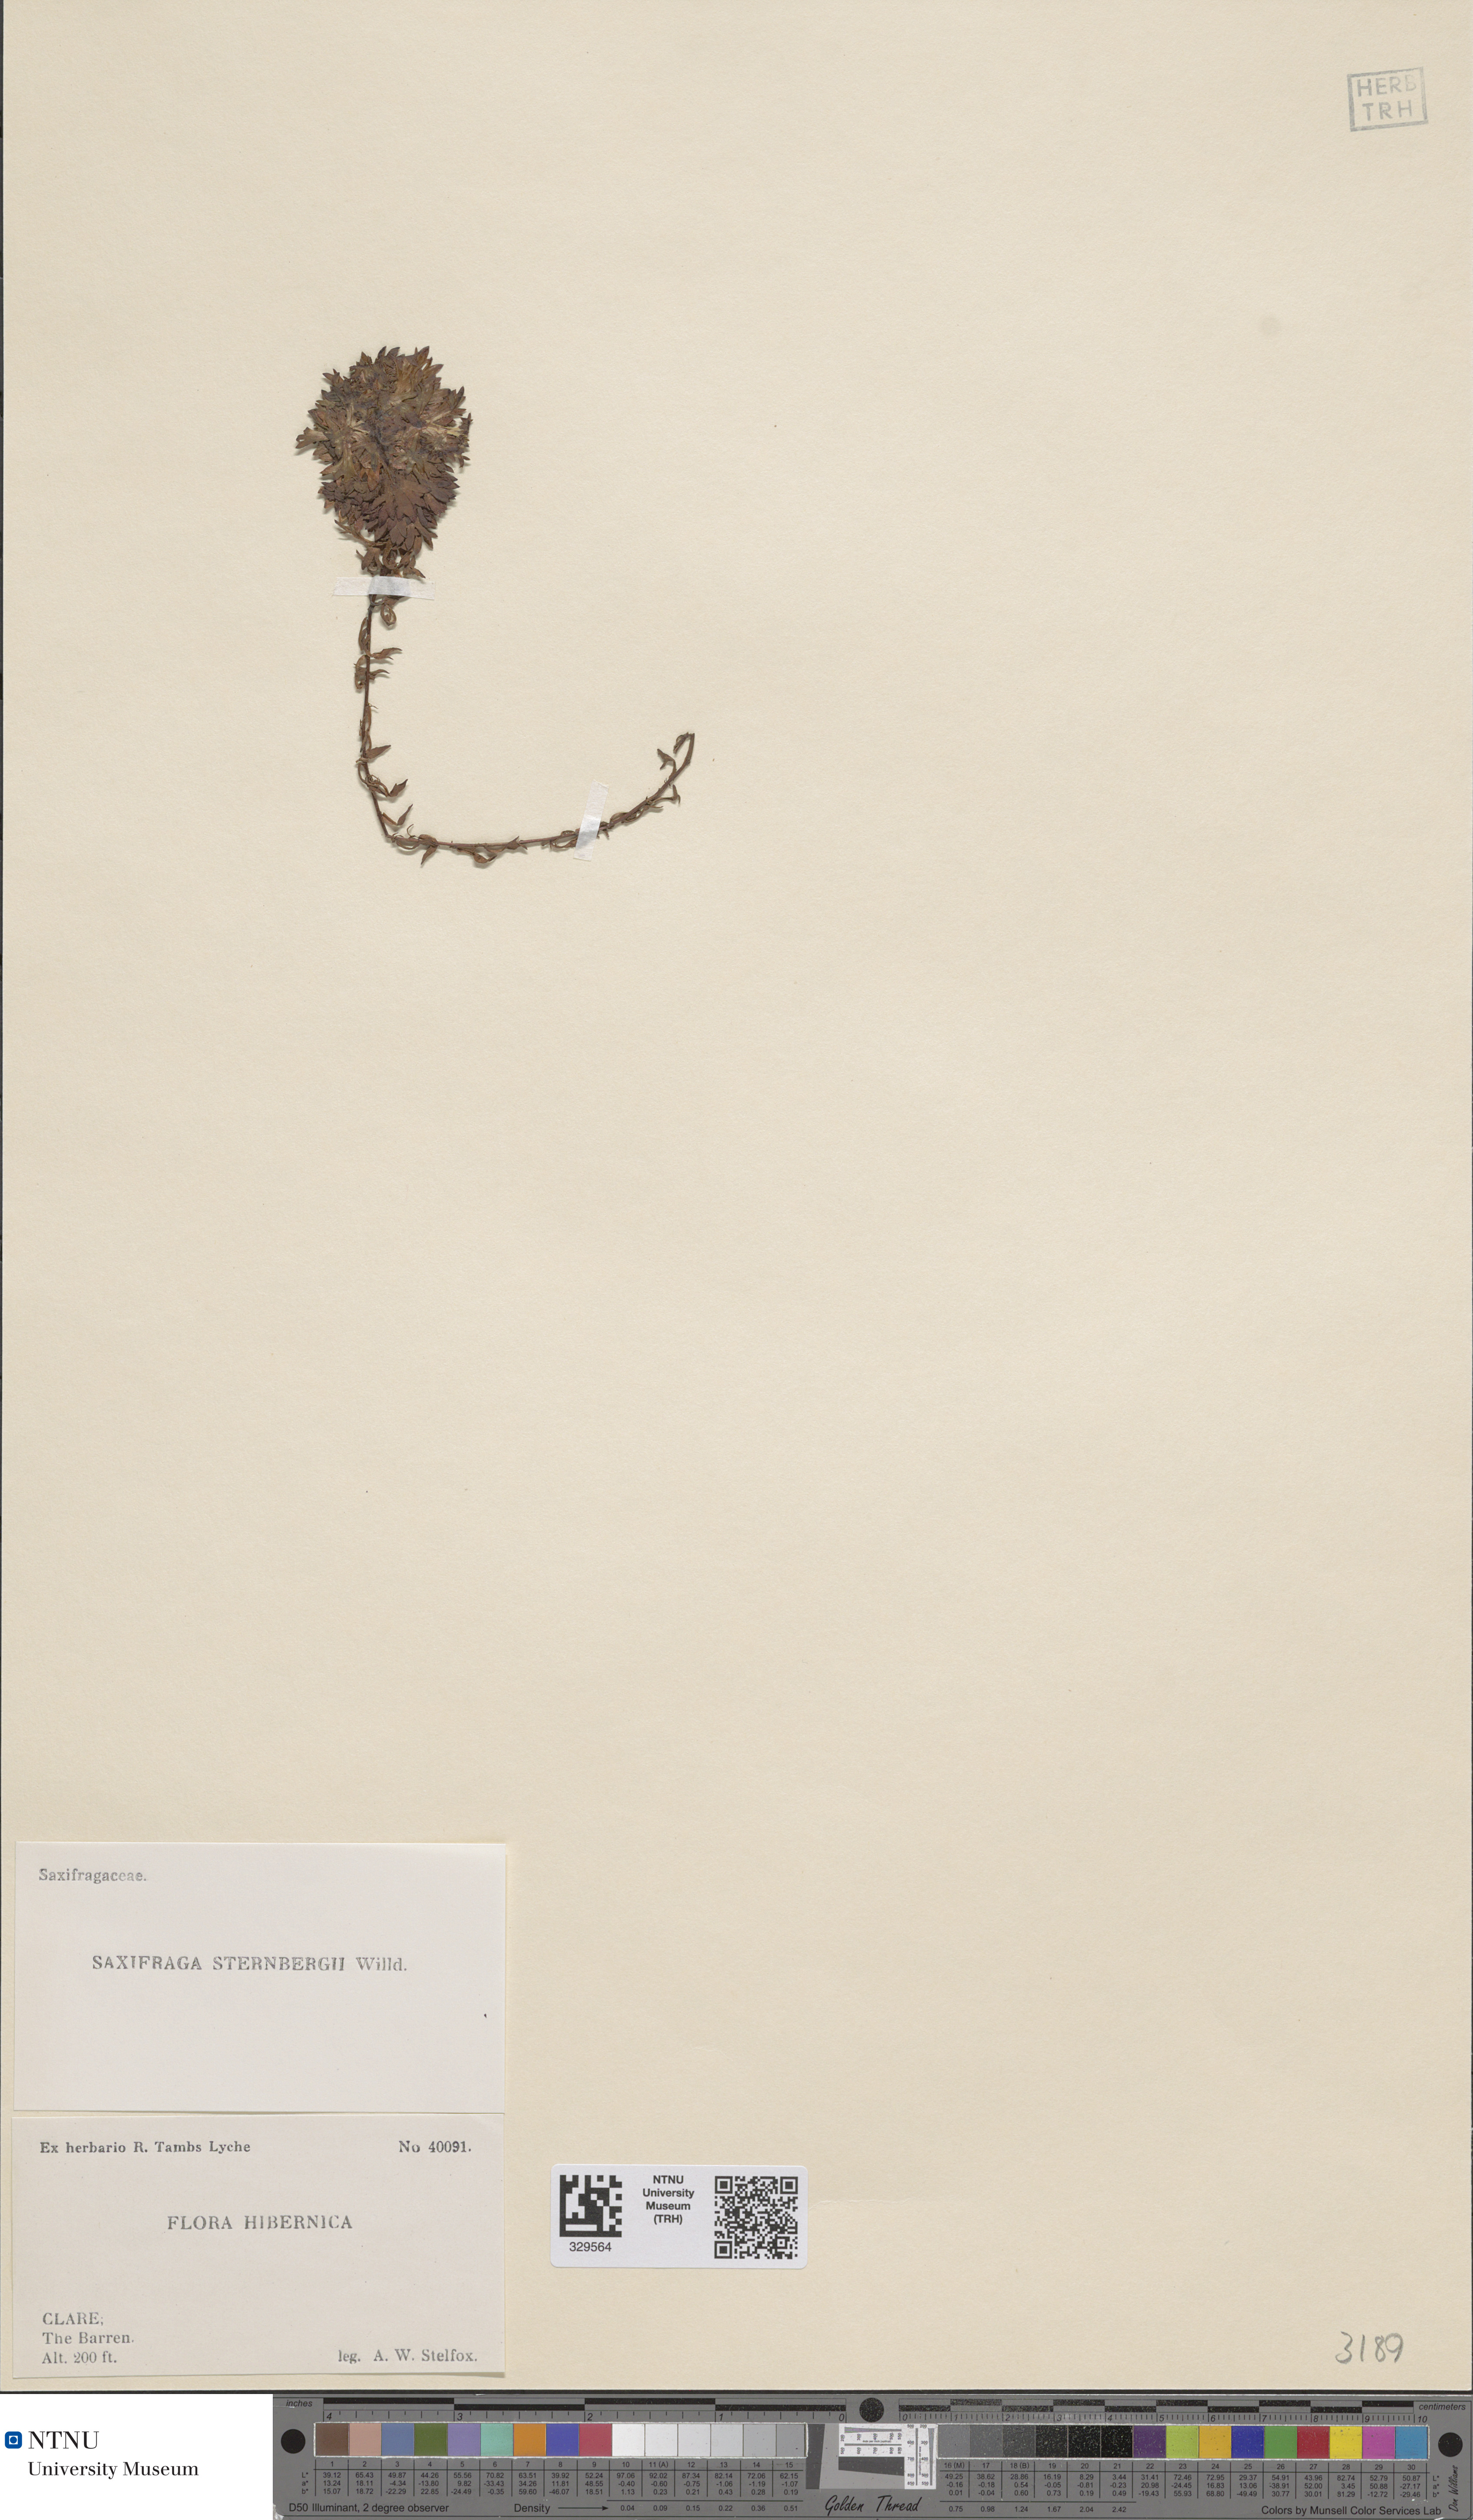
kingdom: Plantae
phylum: Tracheophyta
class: Magnoliopsida
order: Saxifragales
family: Saxifragaceae
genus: Saxifraga
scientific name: Saxifraga rosacea
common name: Irish saxifrage
